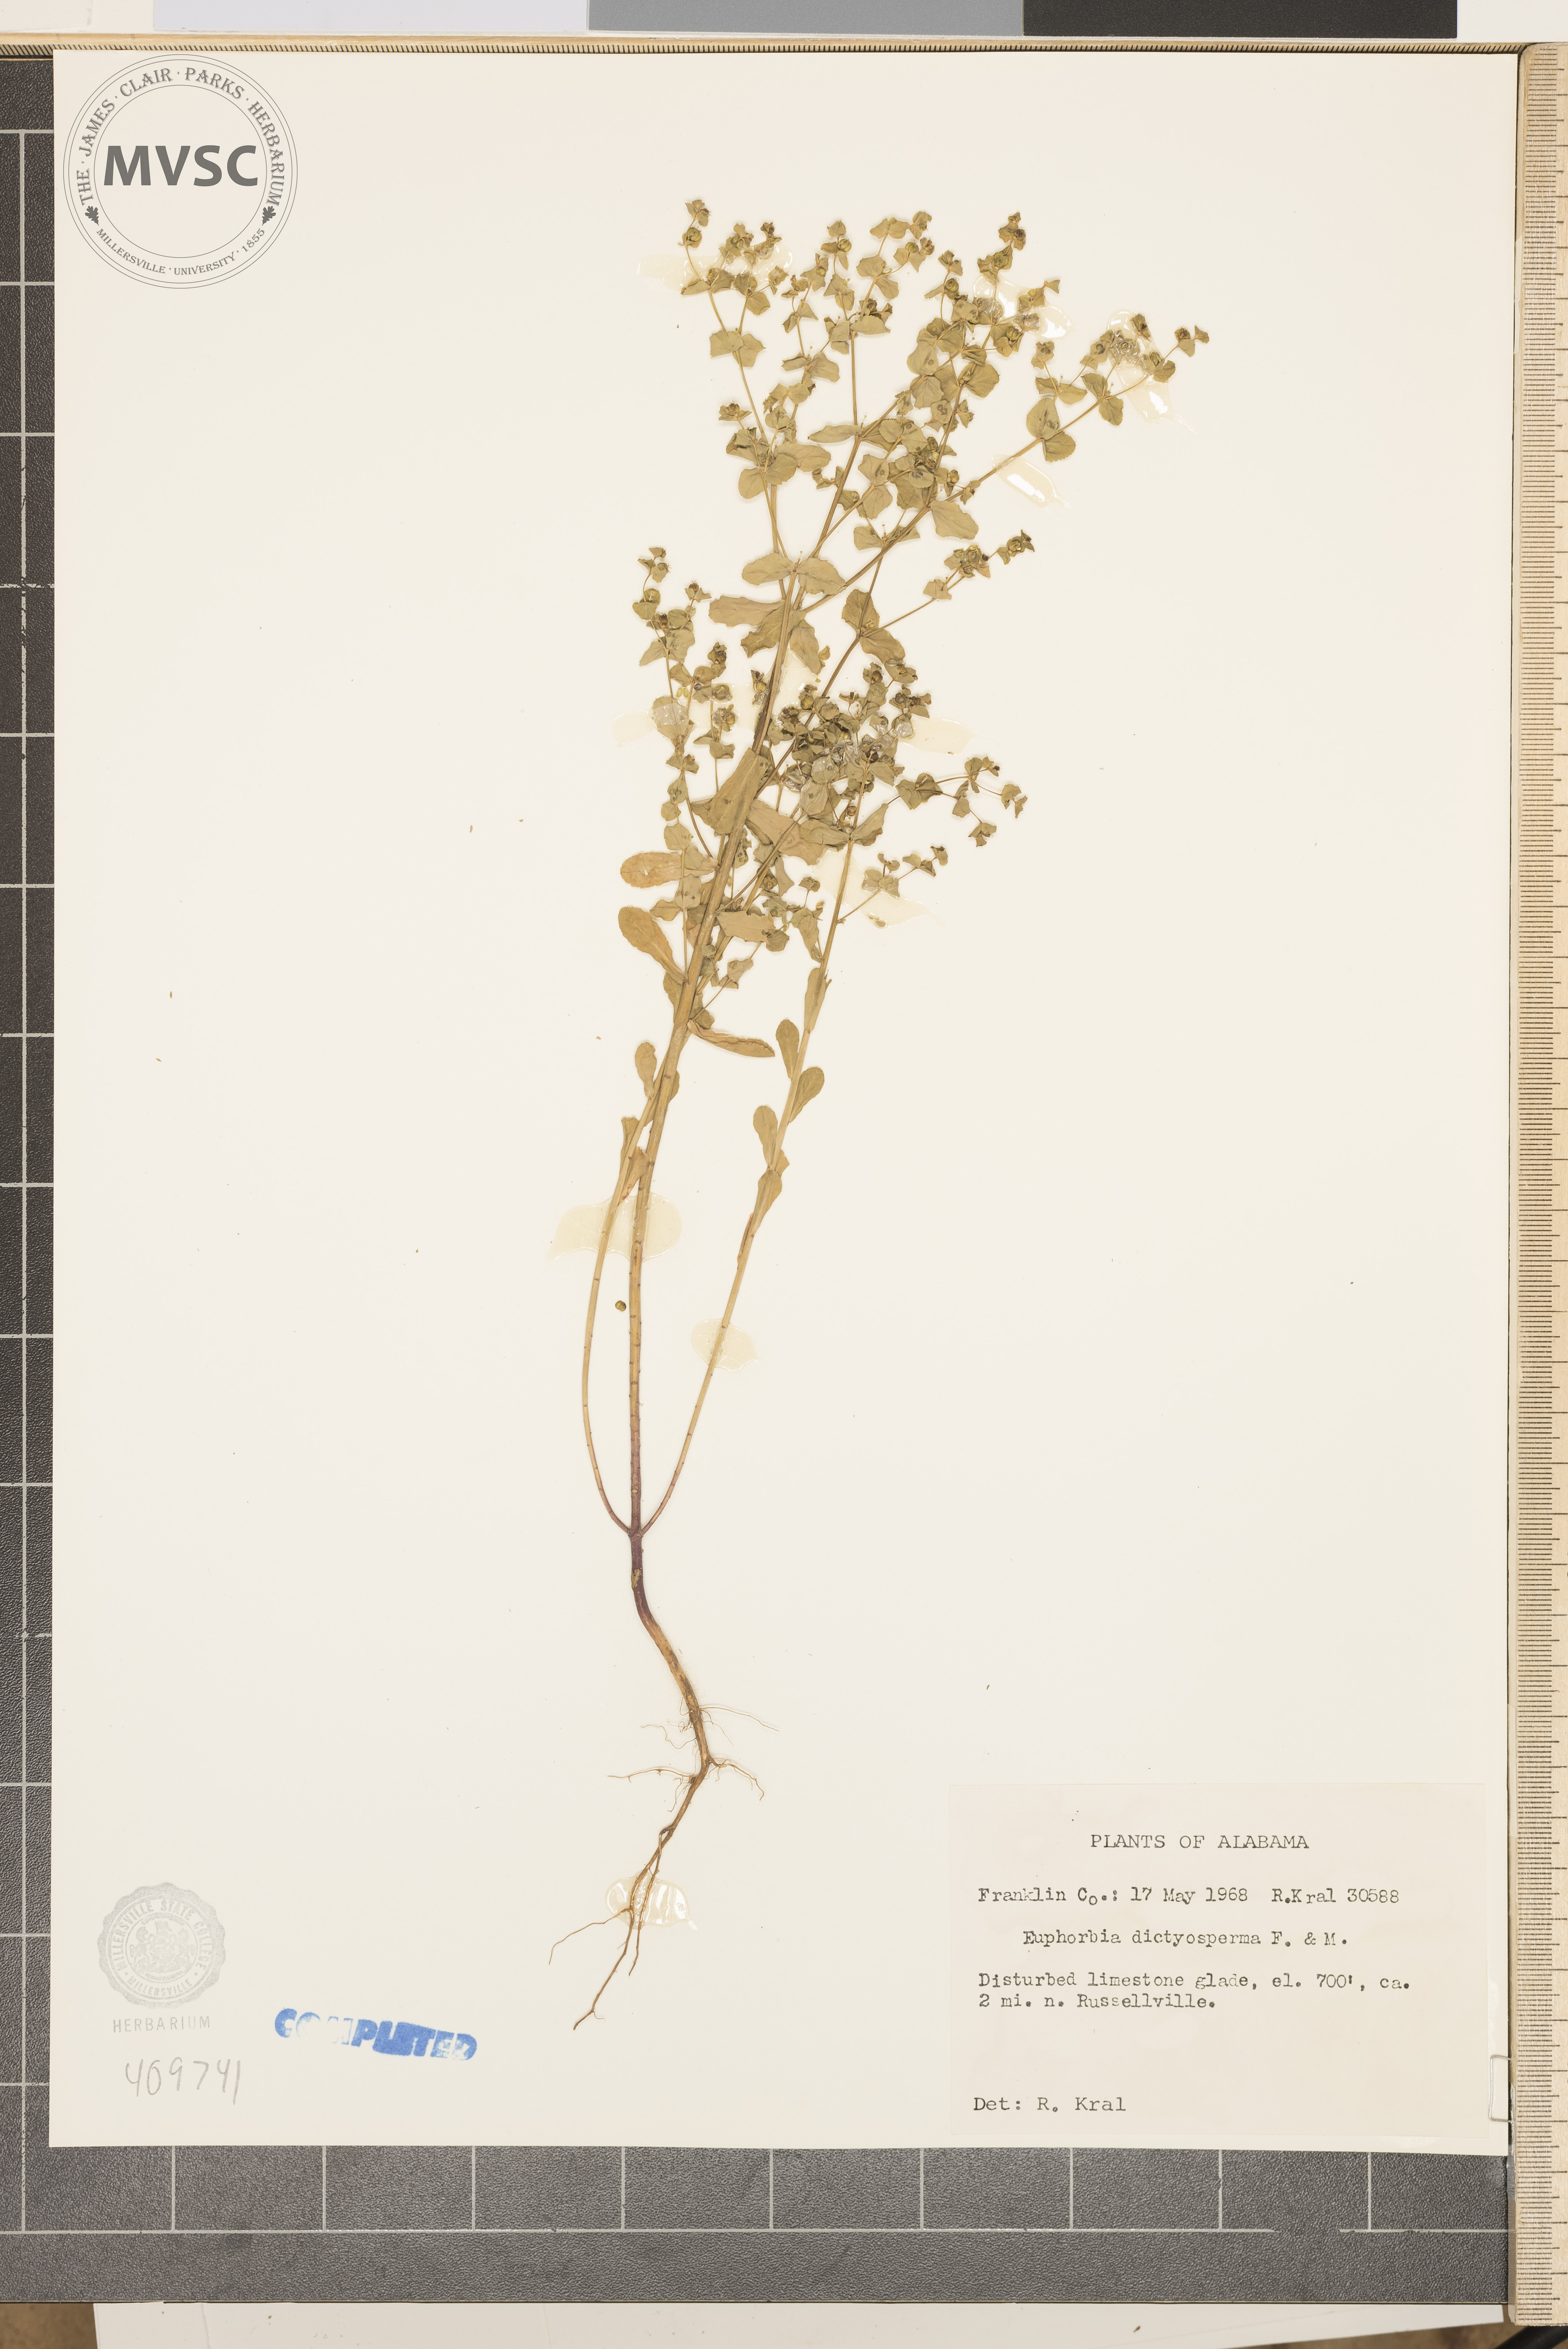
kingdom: Plantae
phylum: Tracheophyta
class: Magnoliopsida
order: Malpighiales
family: Euphorbiaceae
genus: Euphorbia
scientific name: Euphorbia spathulata
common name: Warty Spurge
